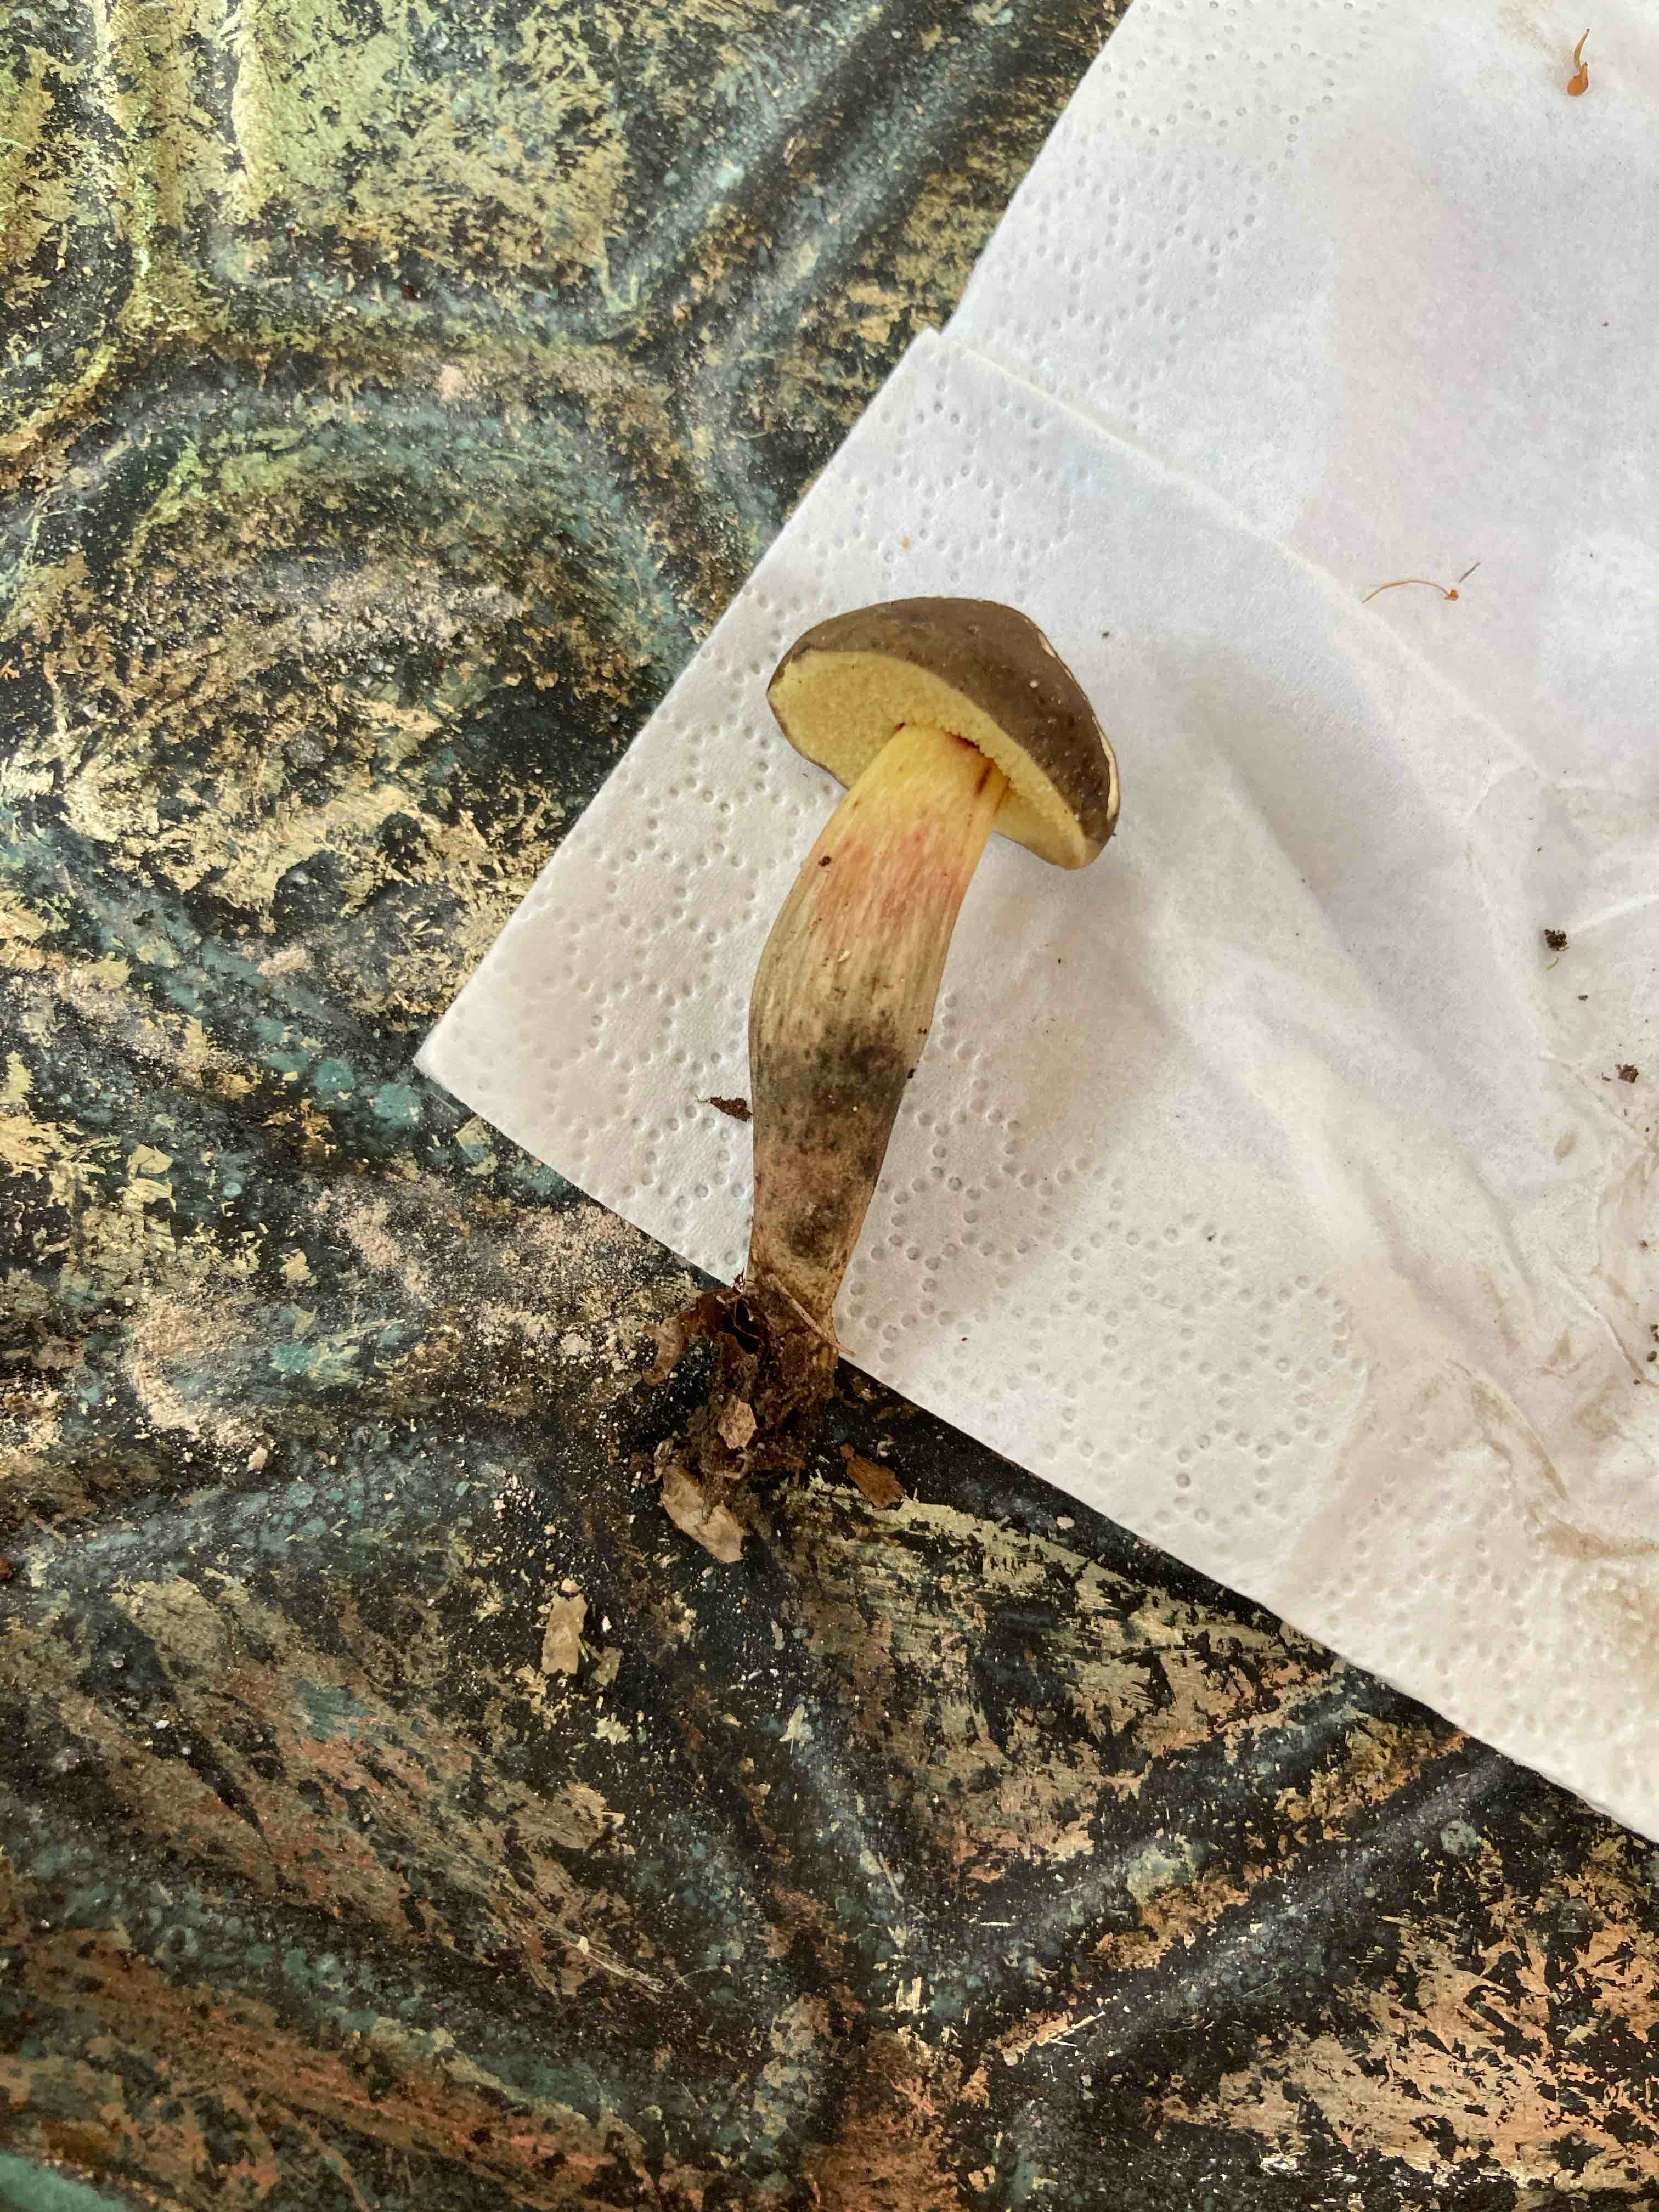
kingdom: Fungi
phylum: Basidiomycota
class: Agaricomycetes
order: Boletales
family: Boletaceae
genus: Xerocomellus
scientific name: Xerocomellus cisalpinus
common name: finsprukken rørhat
